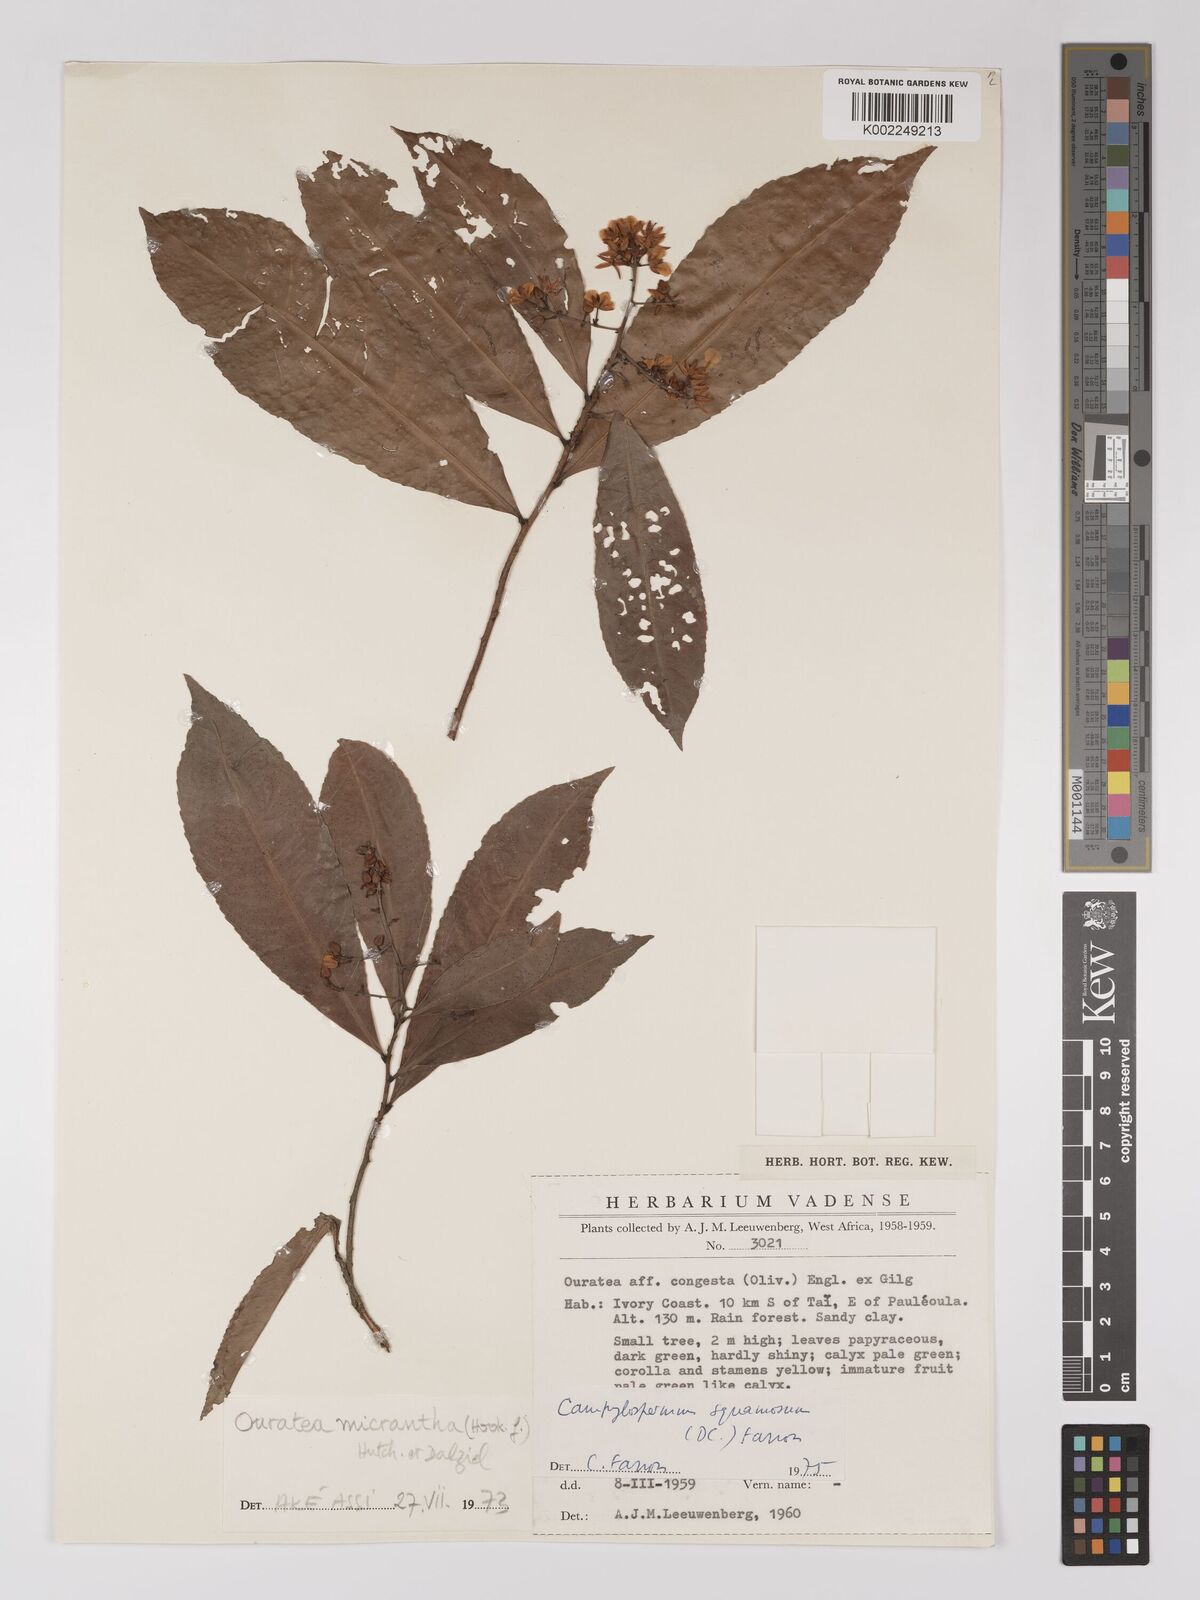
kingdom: Plantae
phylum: Tracheophyta
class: Magnoliopsida
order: Malpighiales
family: Ochnaceae
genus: Campylospermum
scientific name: Campylospermum squamosum
